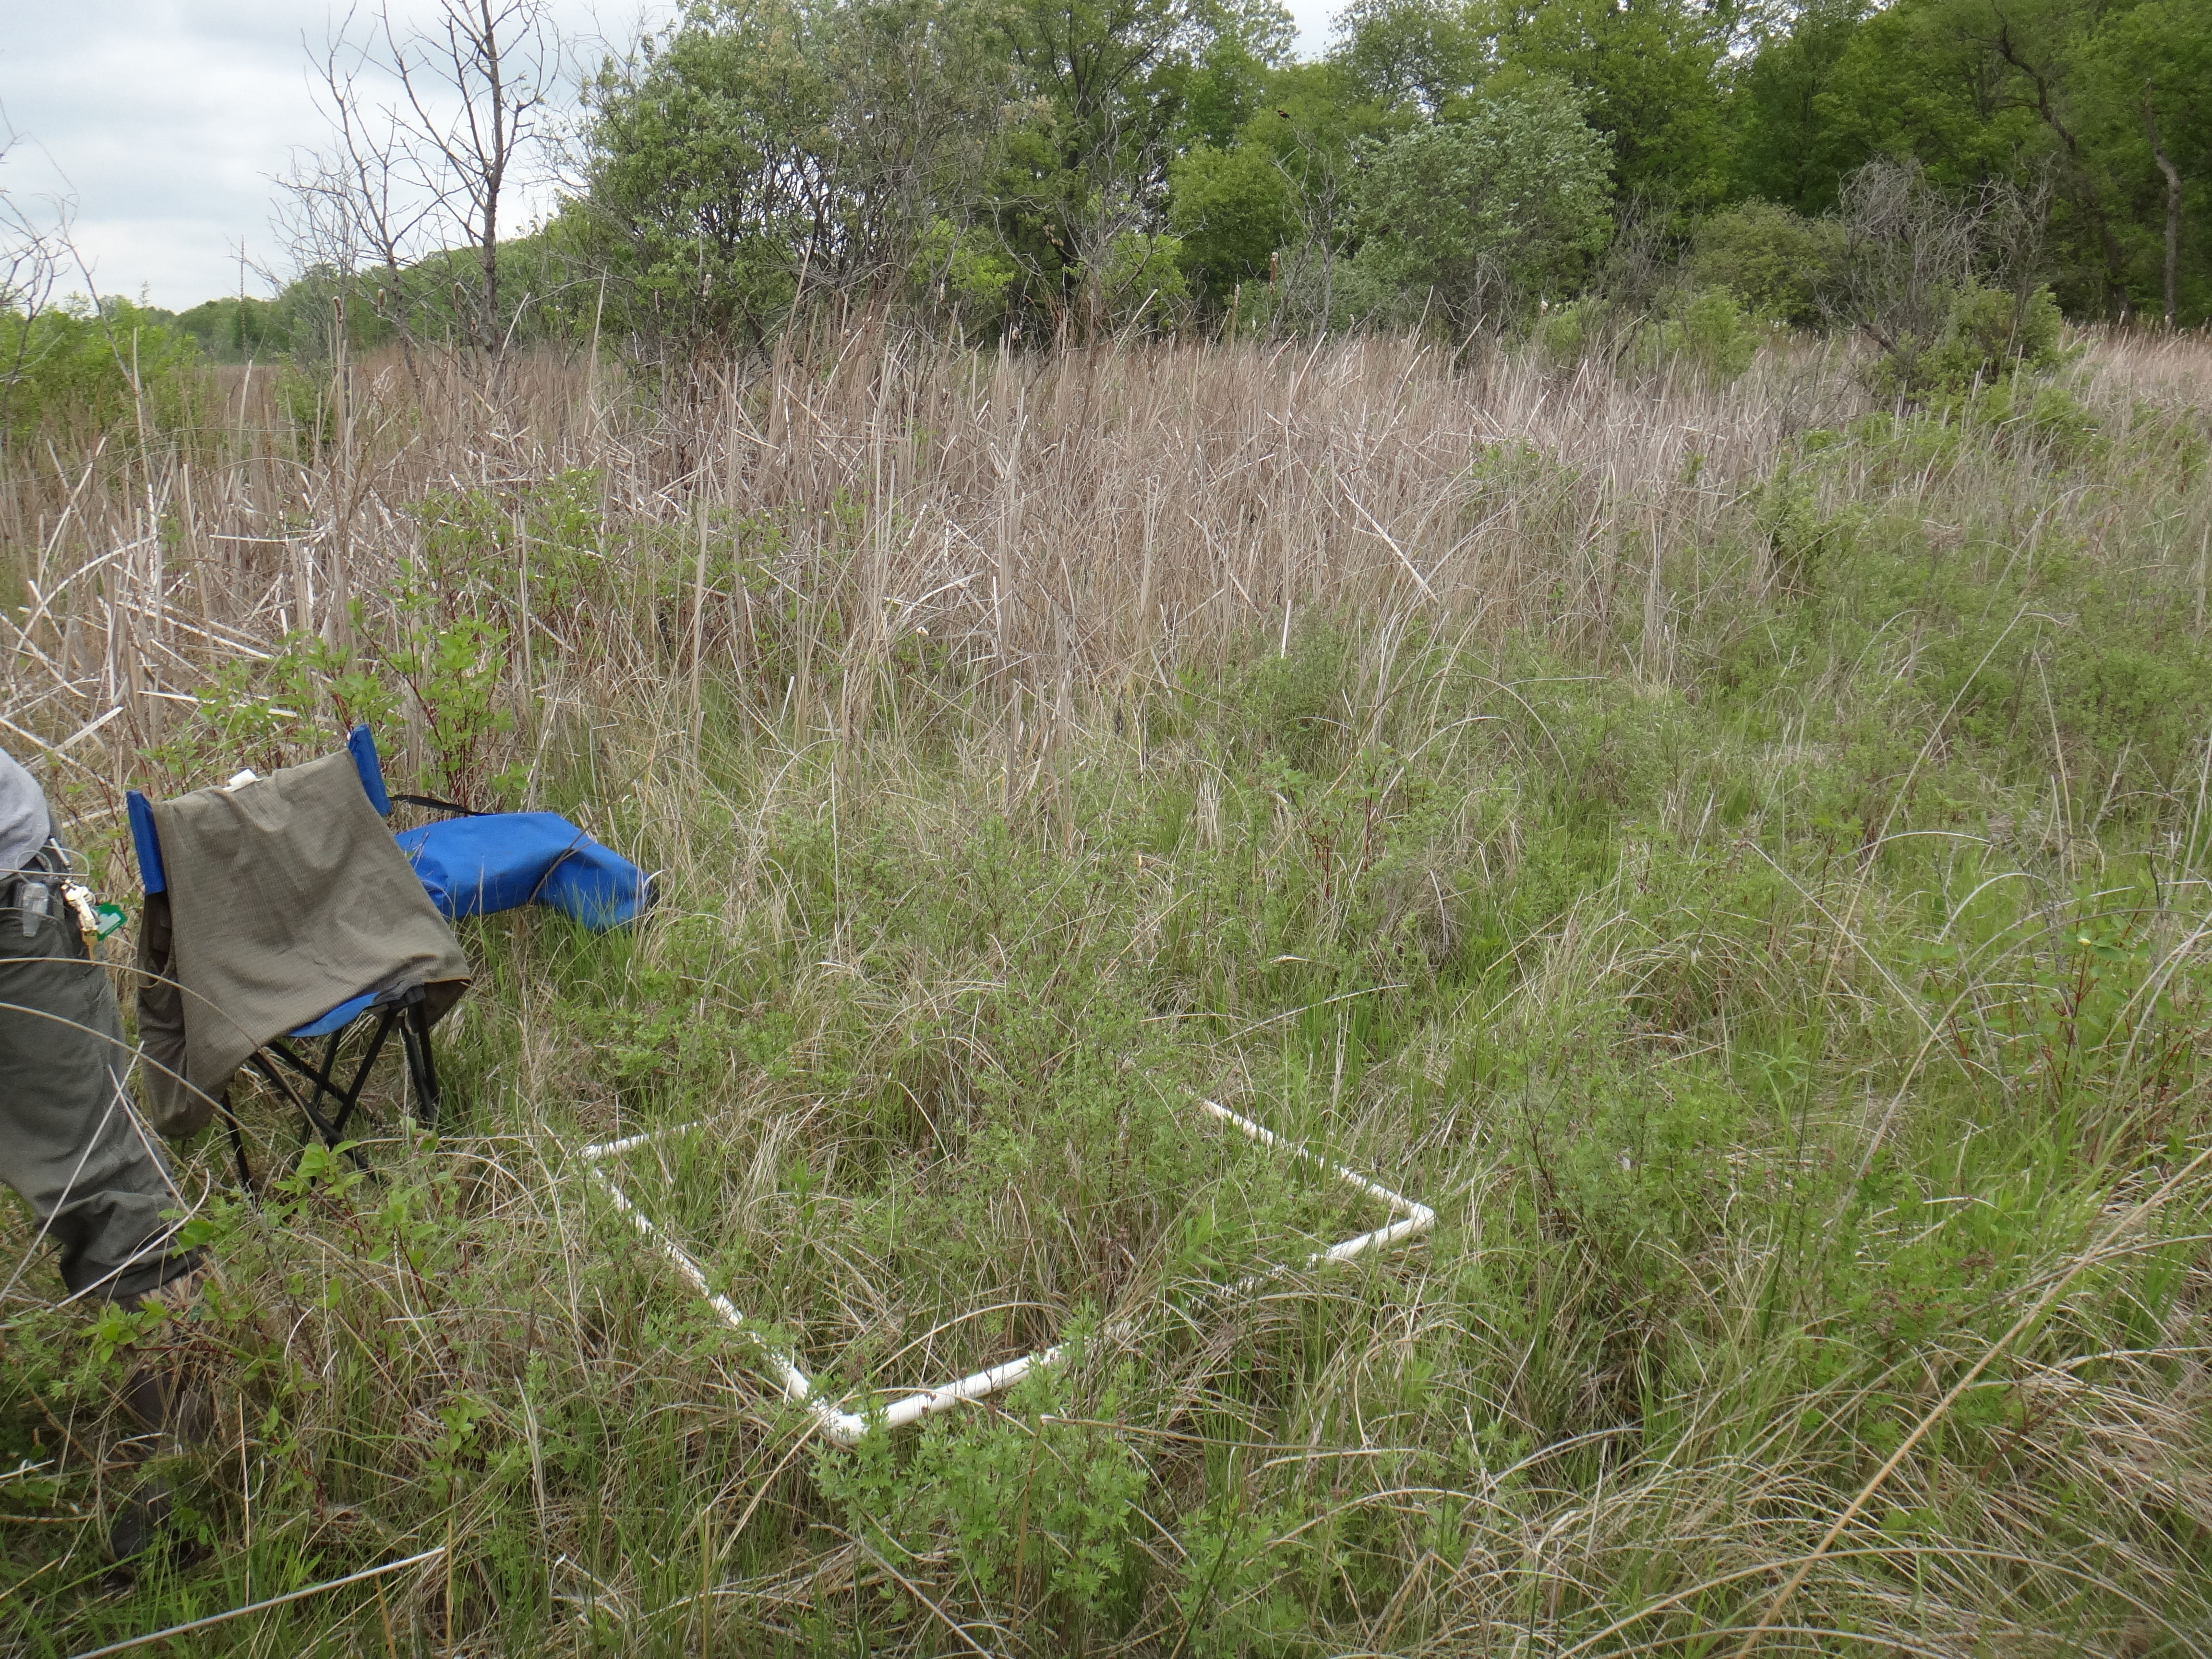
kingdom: Plantae
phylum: Tracheophyta
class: Magnoliopsida
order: Asterales
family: Asteraceae
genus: Solidago
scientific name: Solidago ohioensis
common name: Ohio goldenrod
